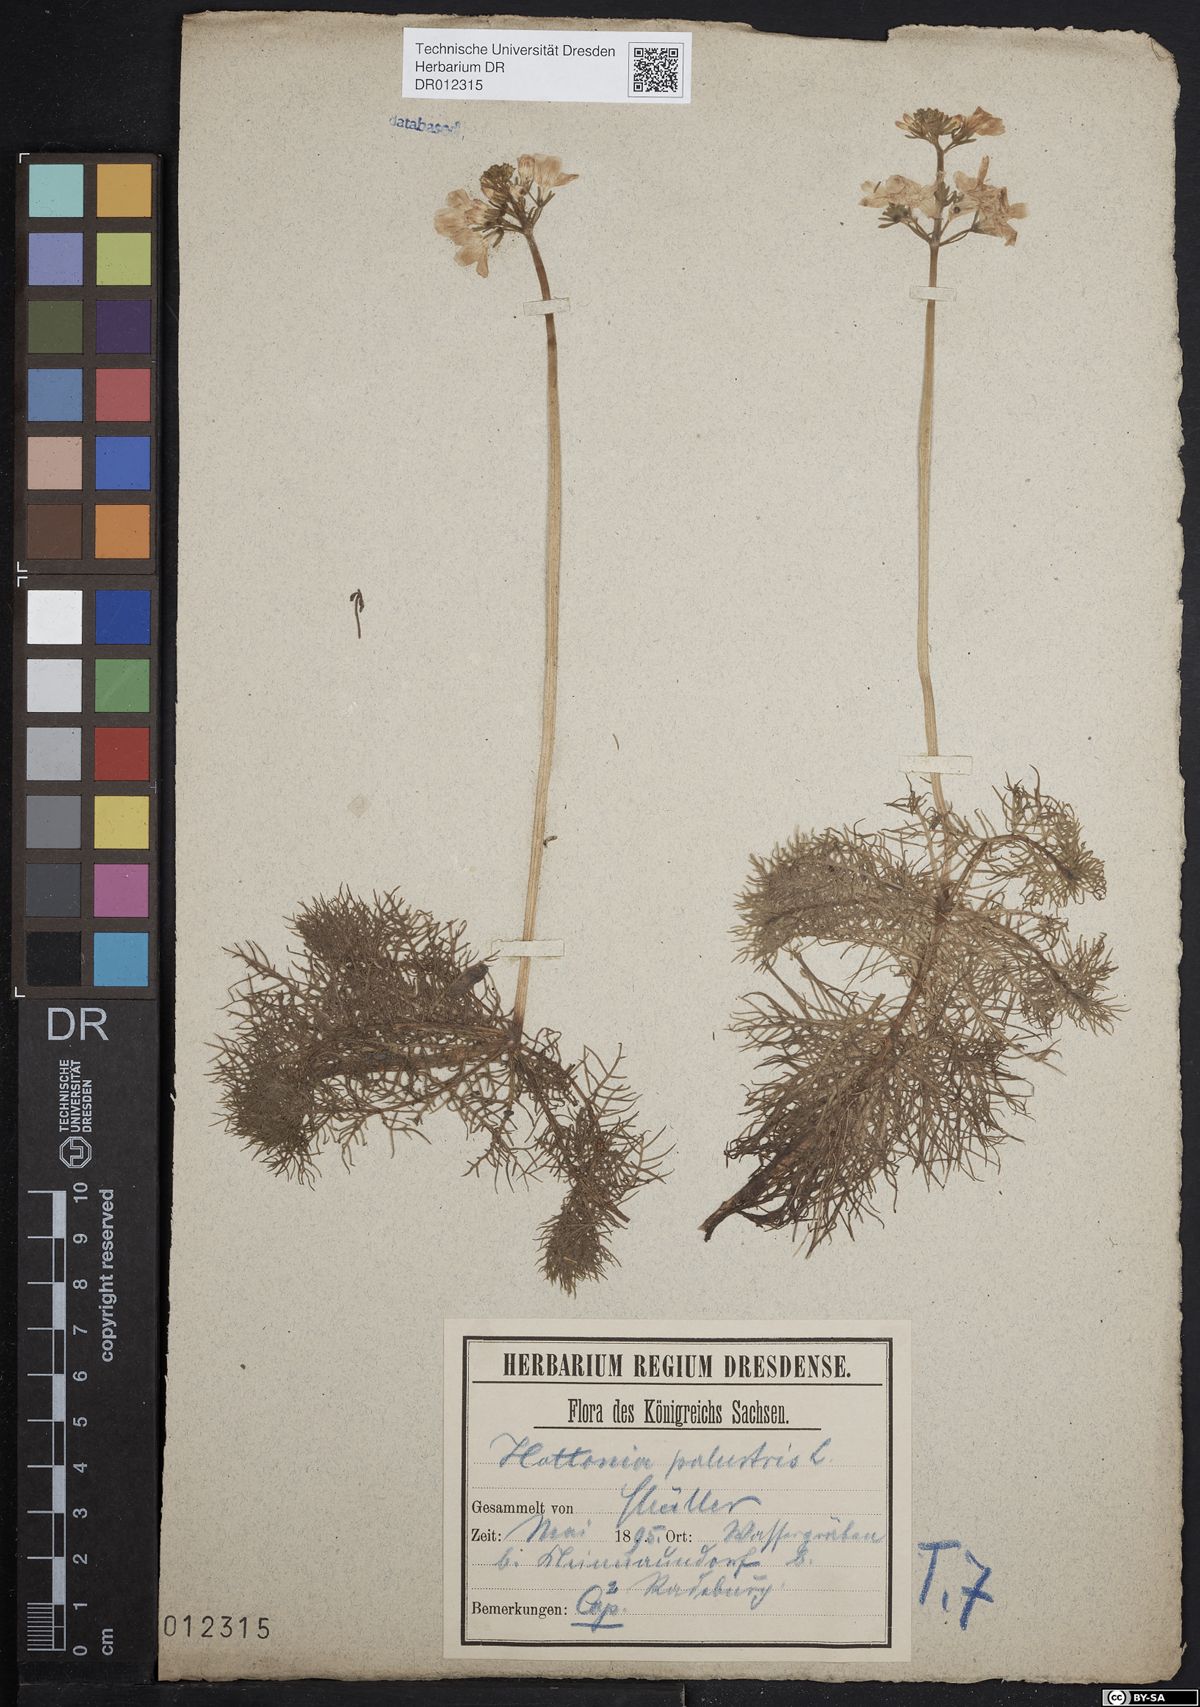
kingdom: Plantae
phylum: Tracheophyta
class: Magnoliopsida
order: Ericales
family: Primulaceae
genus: Hottonia
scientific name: Hottonia palustris
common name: Water-violet
